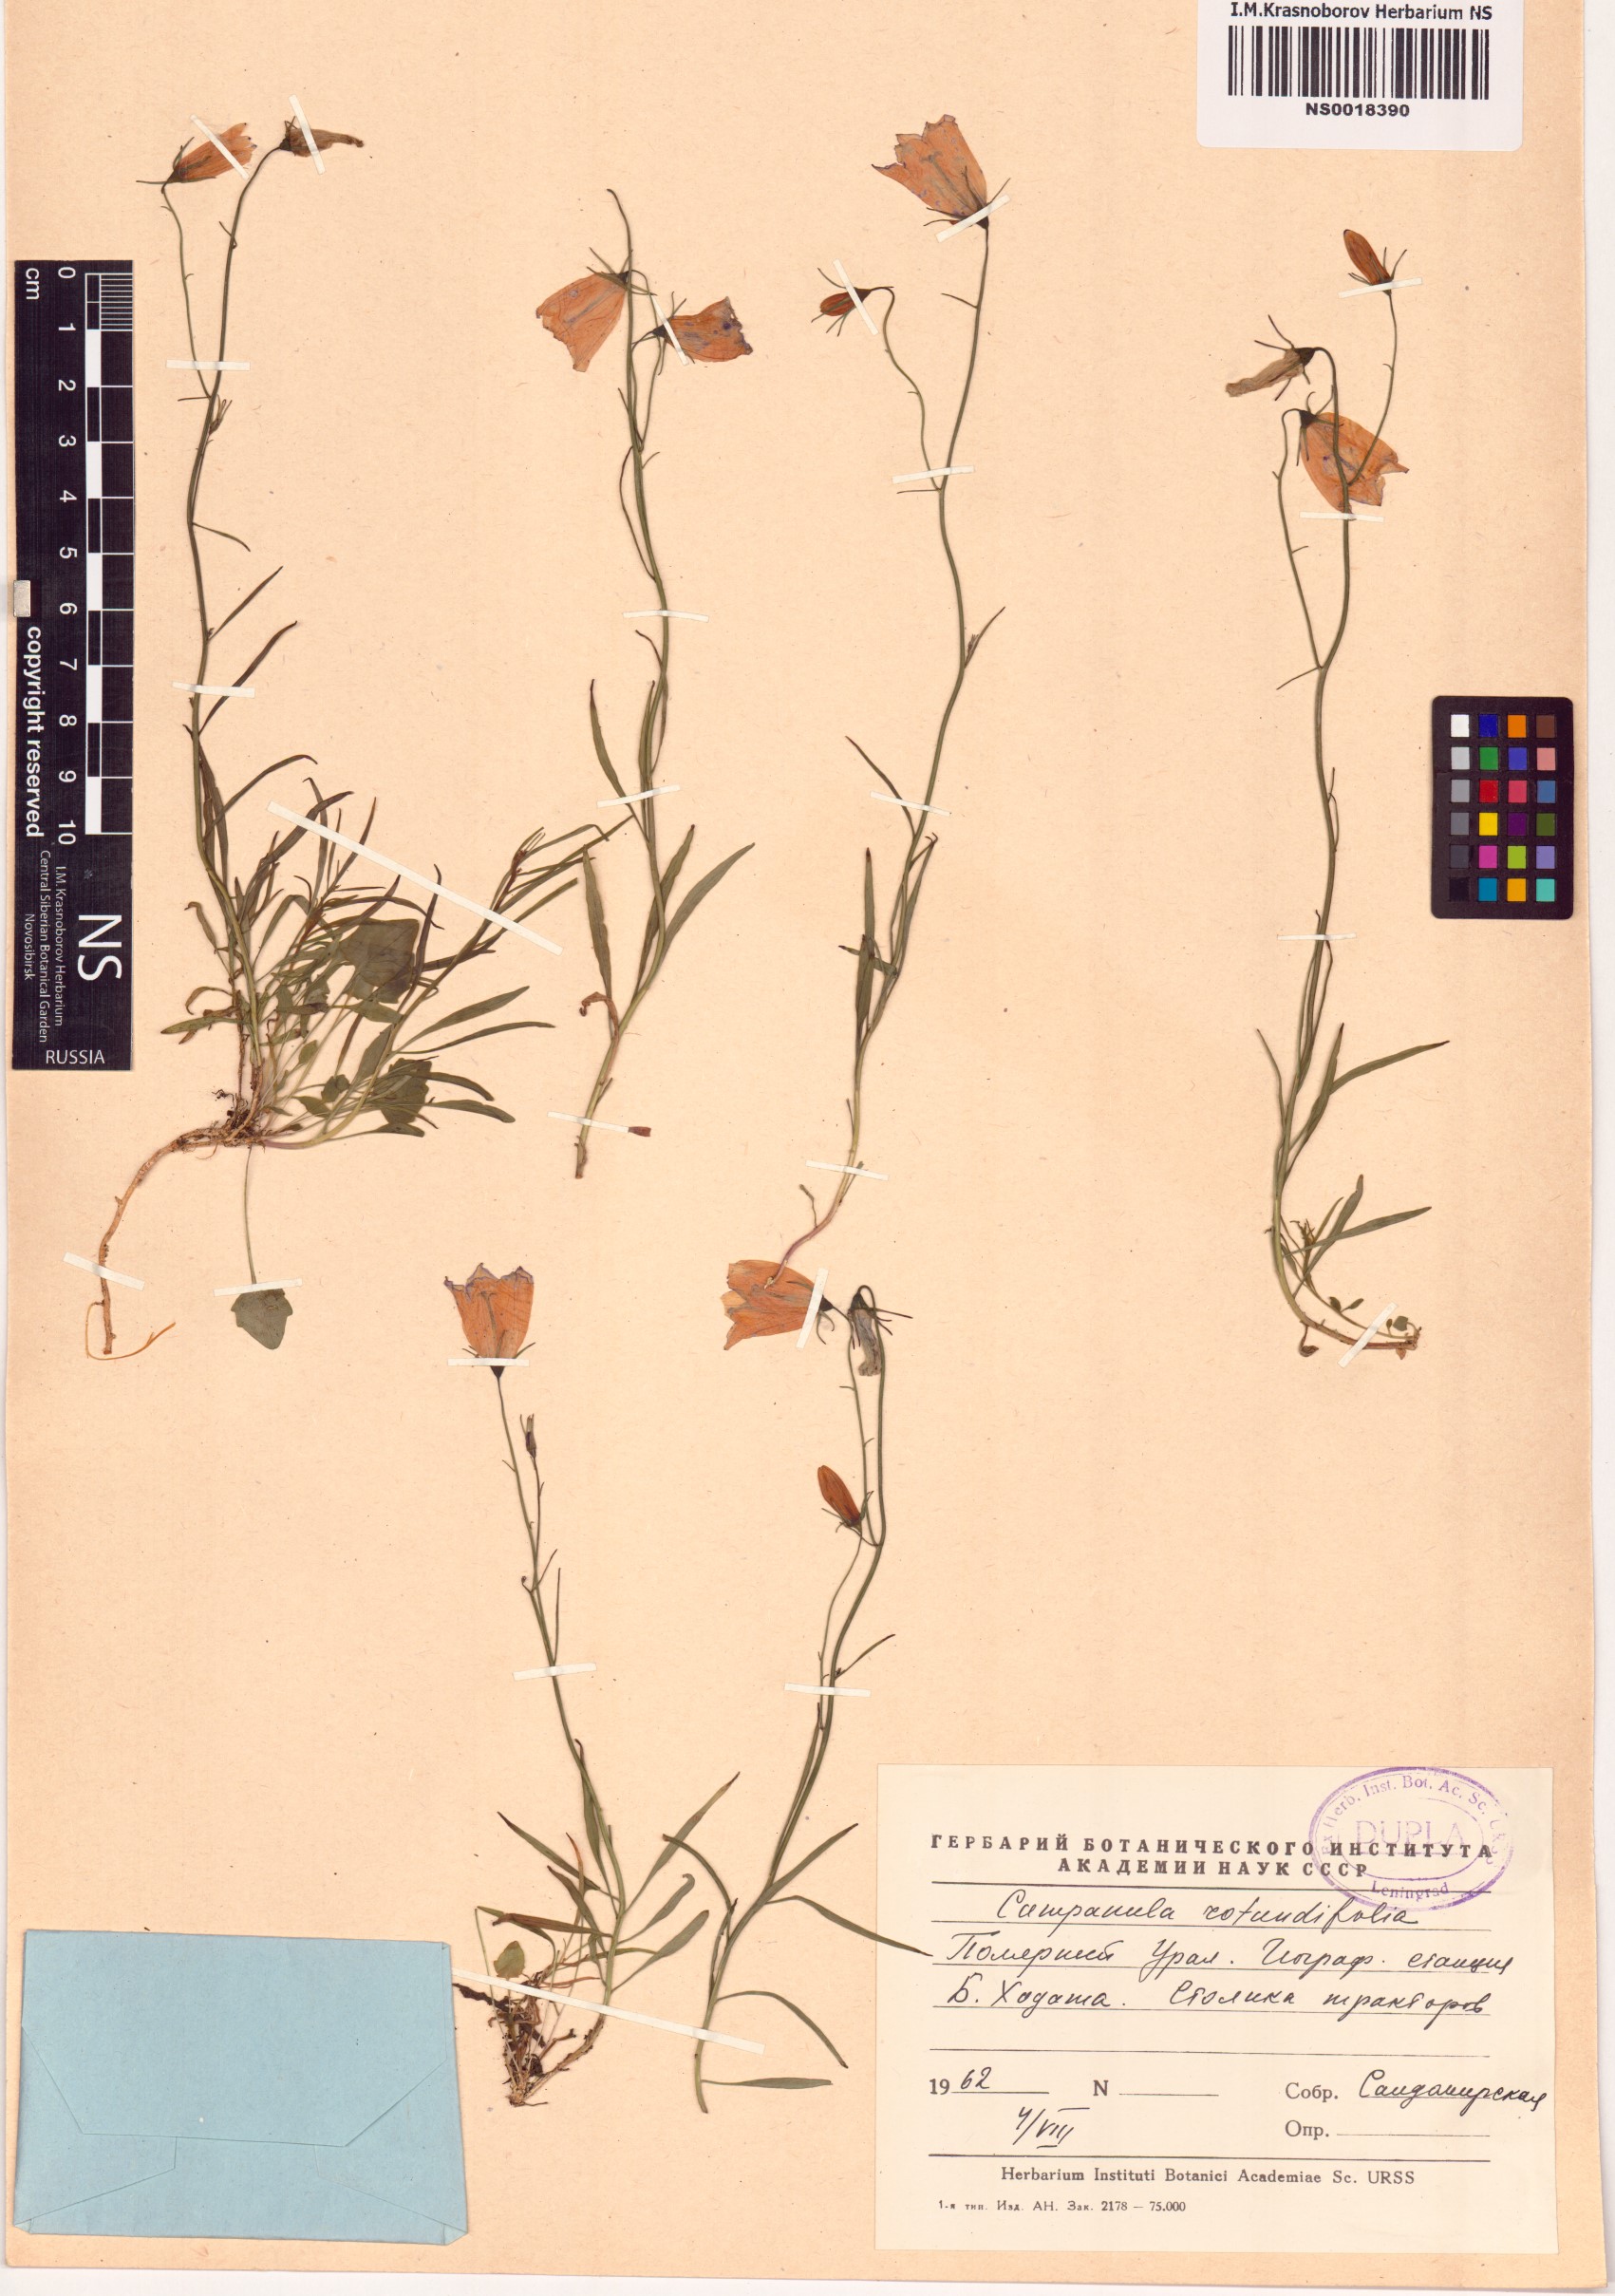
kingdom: Plantae
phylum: Tracheophyta
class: Magnoliopsida
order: Asterales
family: Campanulaceae
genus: Campanula
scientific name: Campanula rotundifolia
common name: Harebell
